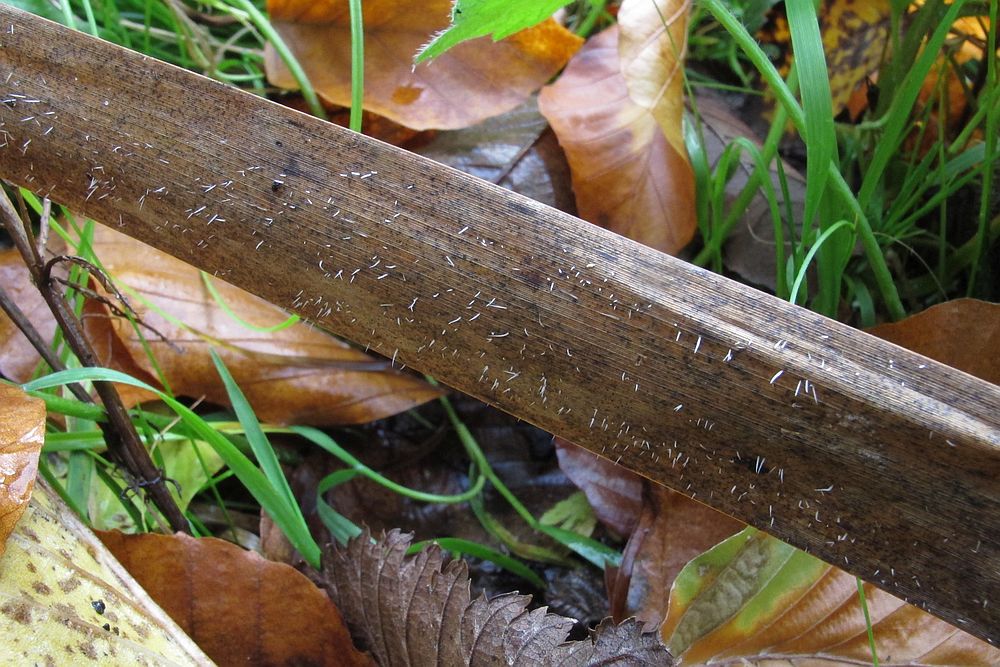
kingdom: Fungi
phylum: Basidiomycota
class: Agaricomycetes
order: Agaricales
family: Pterulaceae
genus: Pterulicium
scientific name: Pterulicium gracile
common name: trådformet fjerkølle
